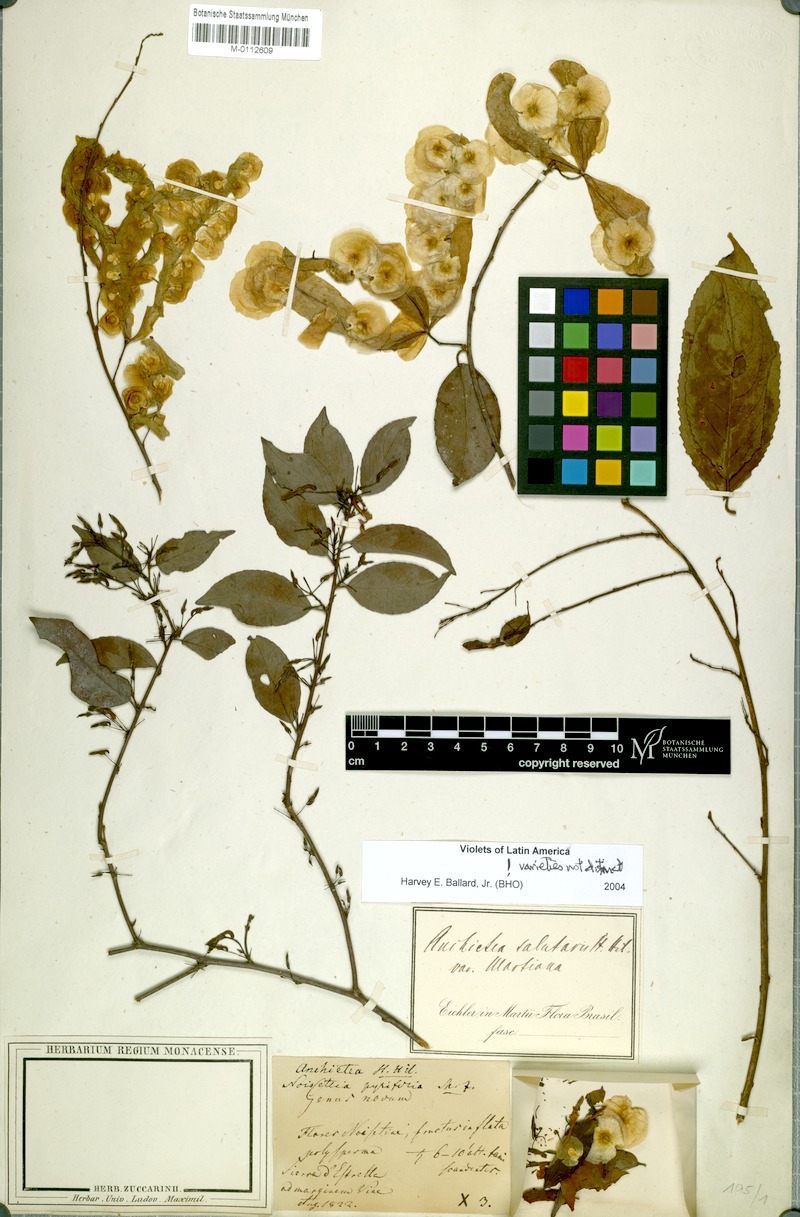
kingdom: Plantae
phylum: Tracheophyta
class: Magnoliopsida
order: Malpighiales
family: Violaceae
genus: Anchietea
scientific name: Anchietea pyrifolia
